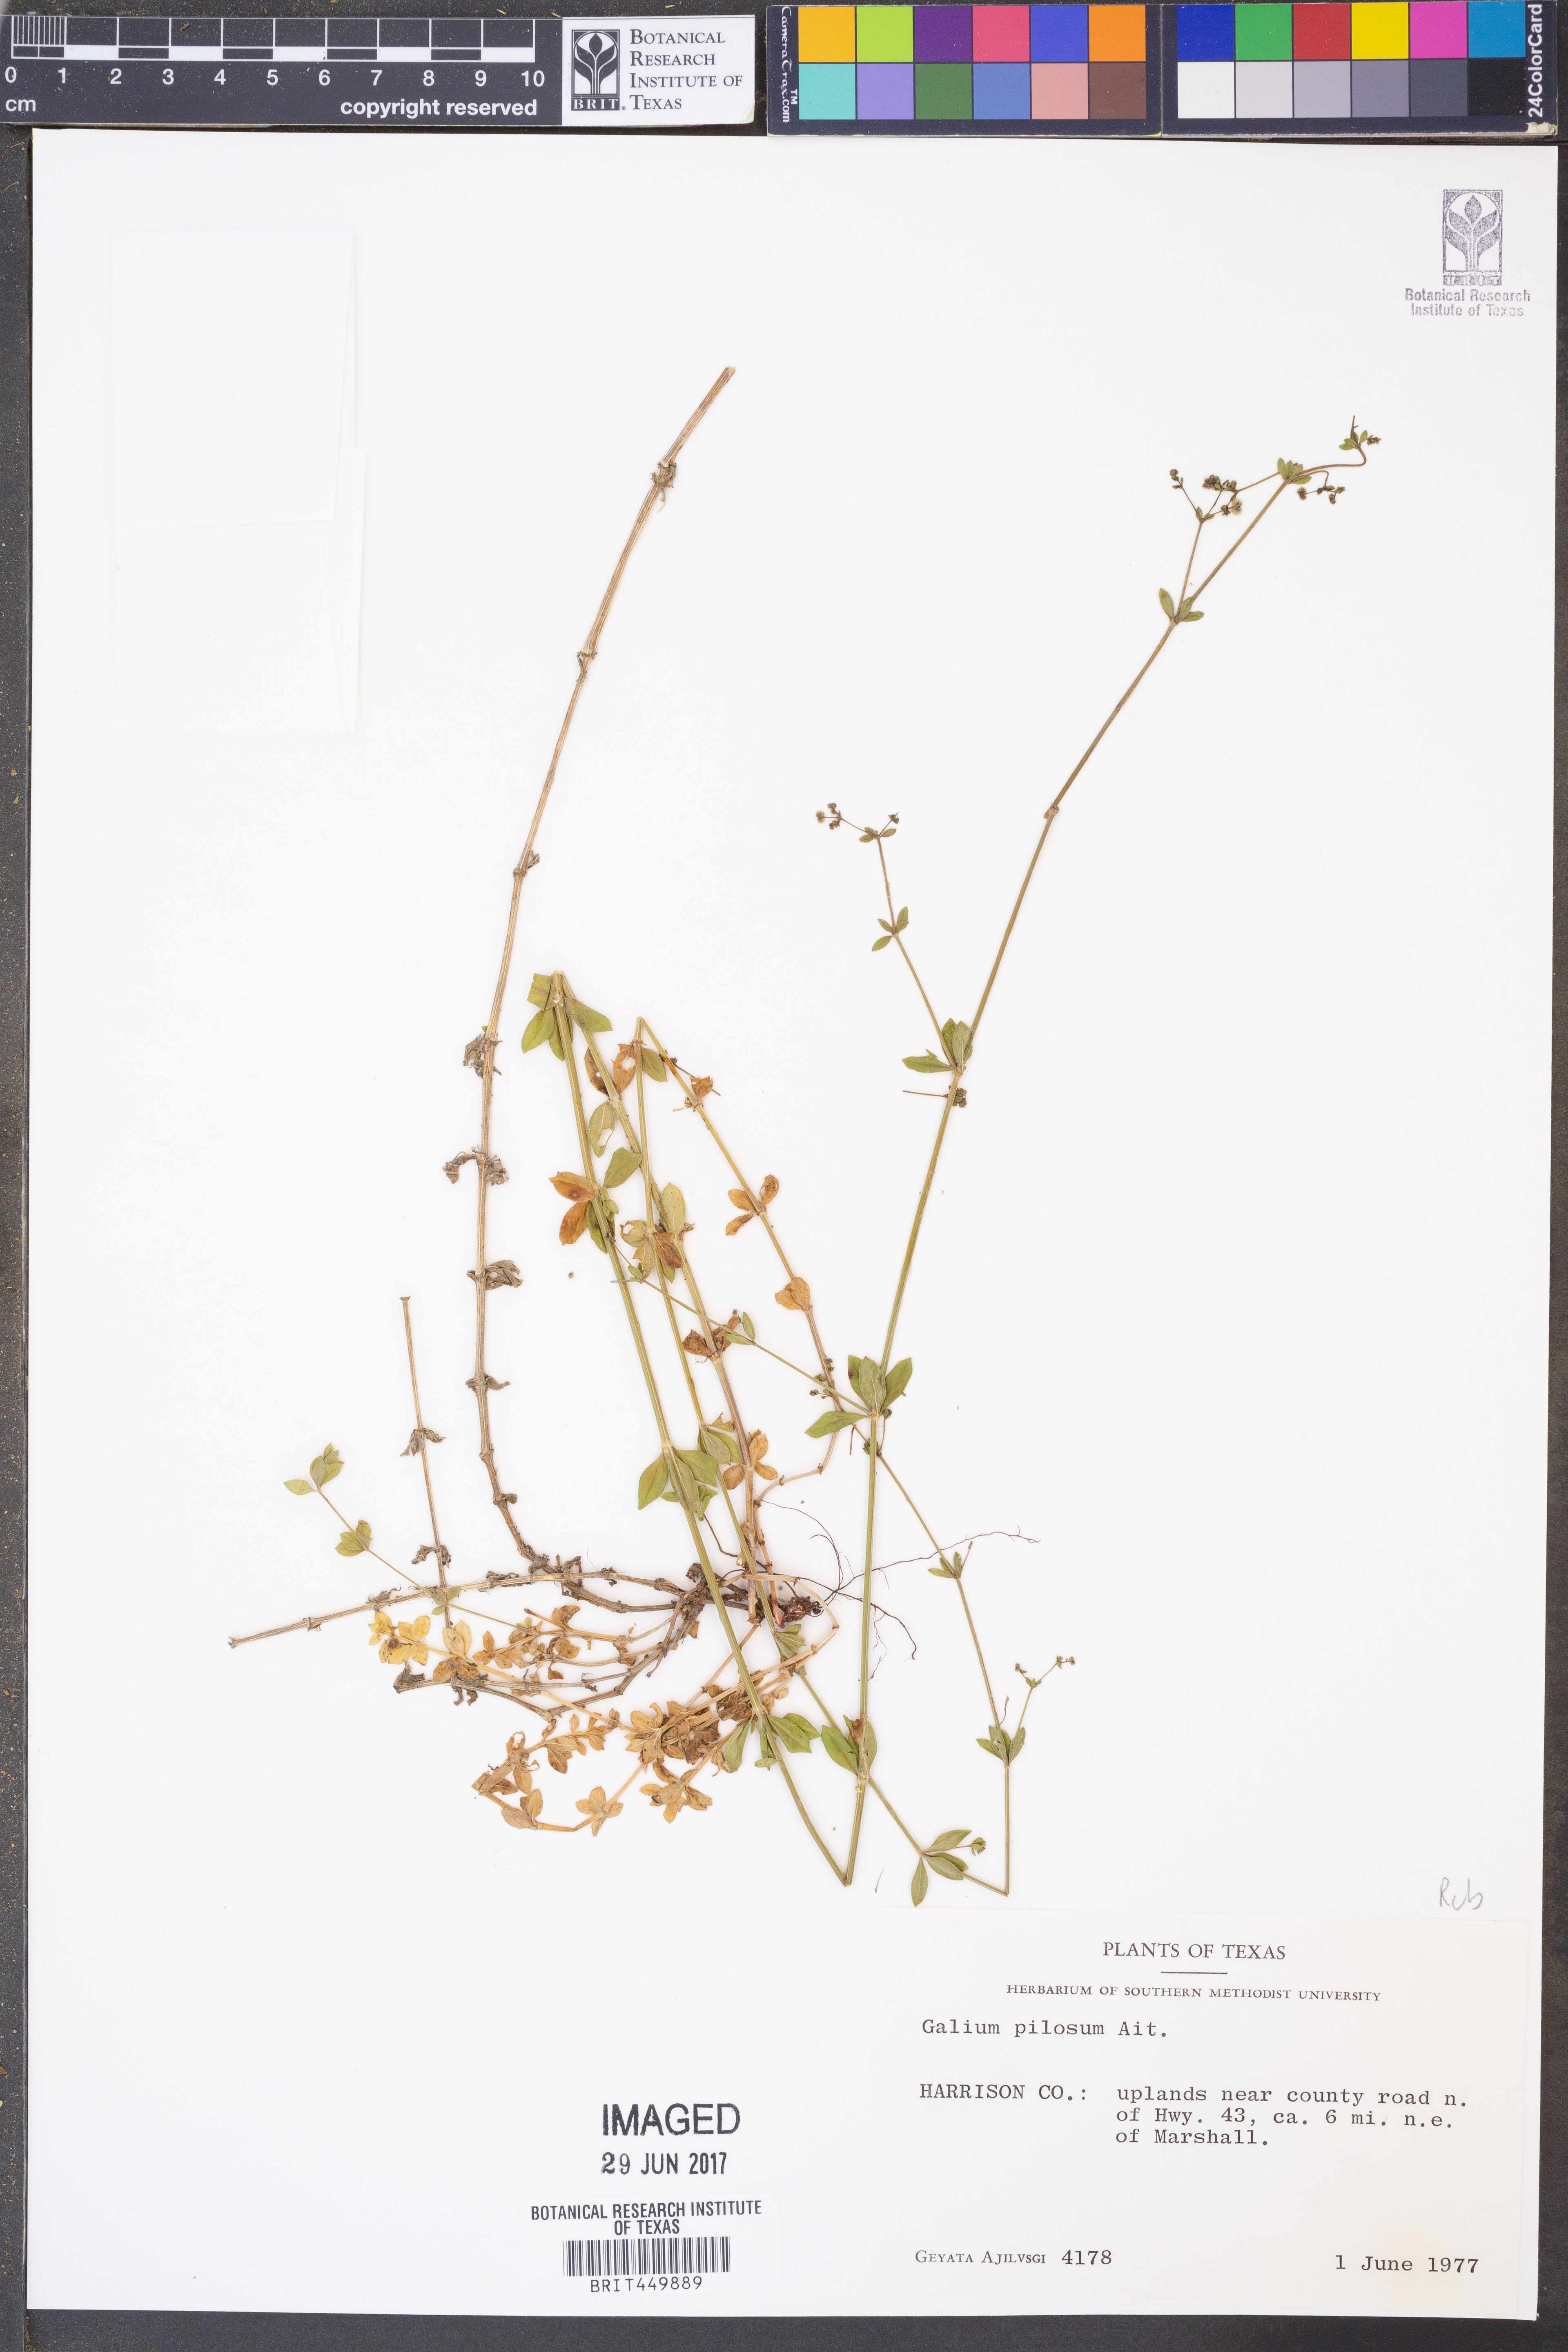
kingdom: Plantae
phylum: Tracheophyta
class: Magnoliopsida
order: Gentianales
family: Rubiaceae
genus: Galium
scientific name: Galium pilosum
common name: Hairy bedstraw
